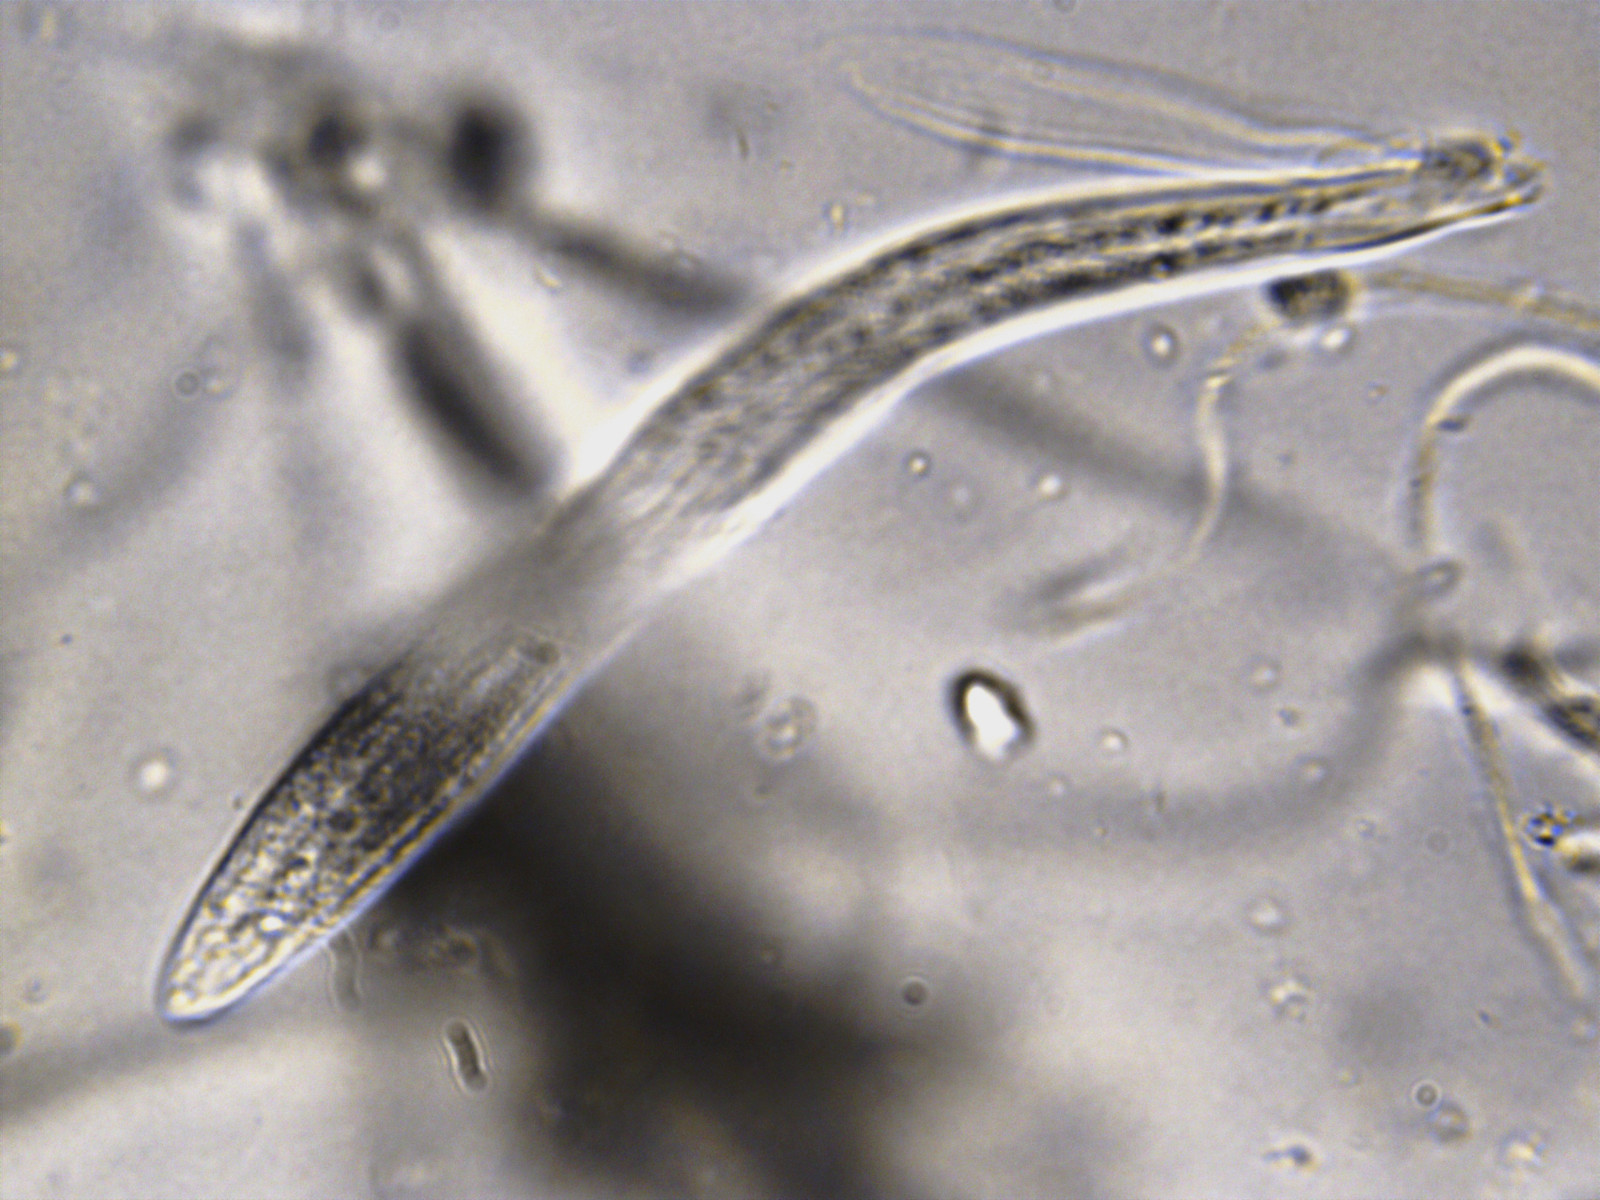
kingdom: Fungi
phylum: Ascomycota
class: Leotiomycetes
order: Rhytismatales
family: Rhytismataceae
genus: Lophodermium
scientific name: Lophodermium arundinaceum
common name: almindelig fureplet
